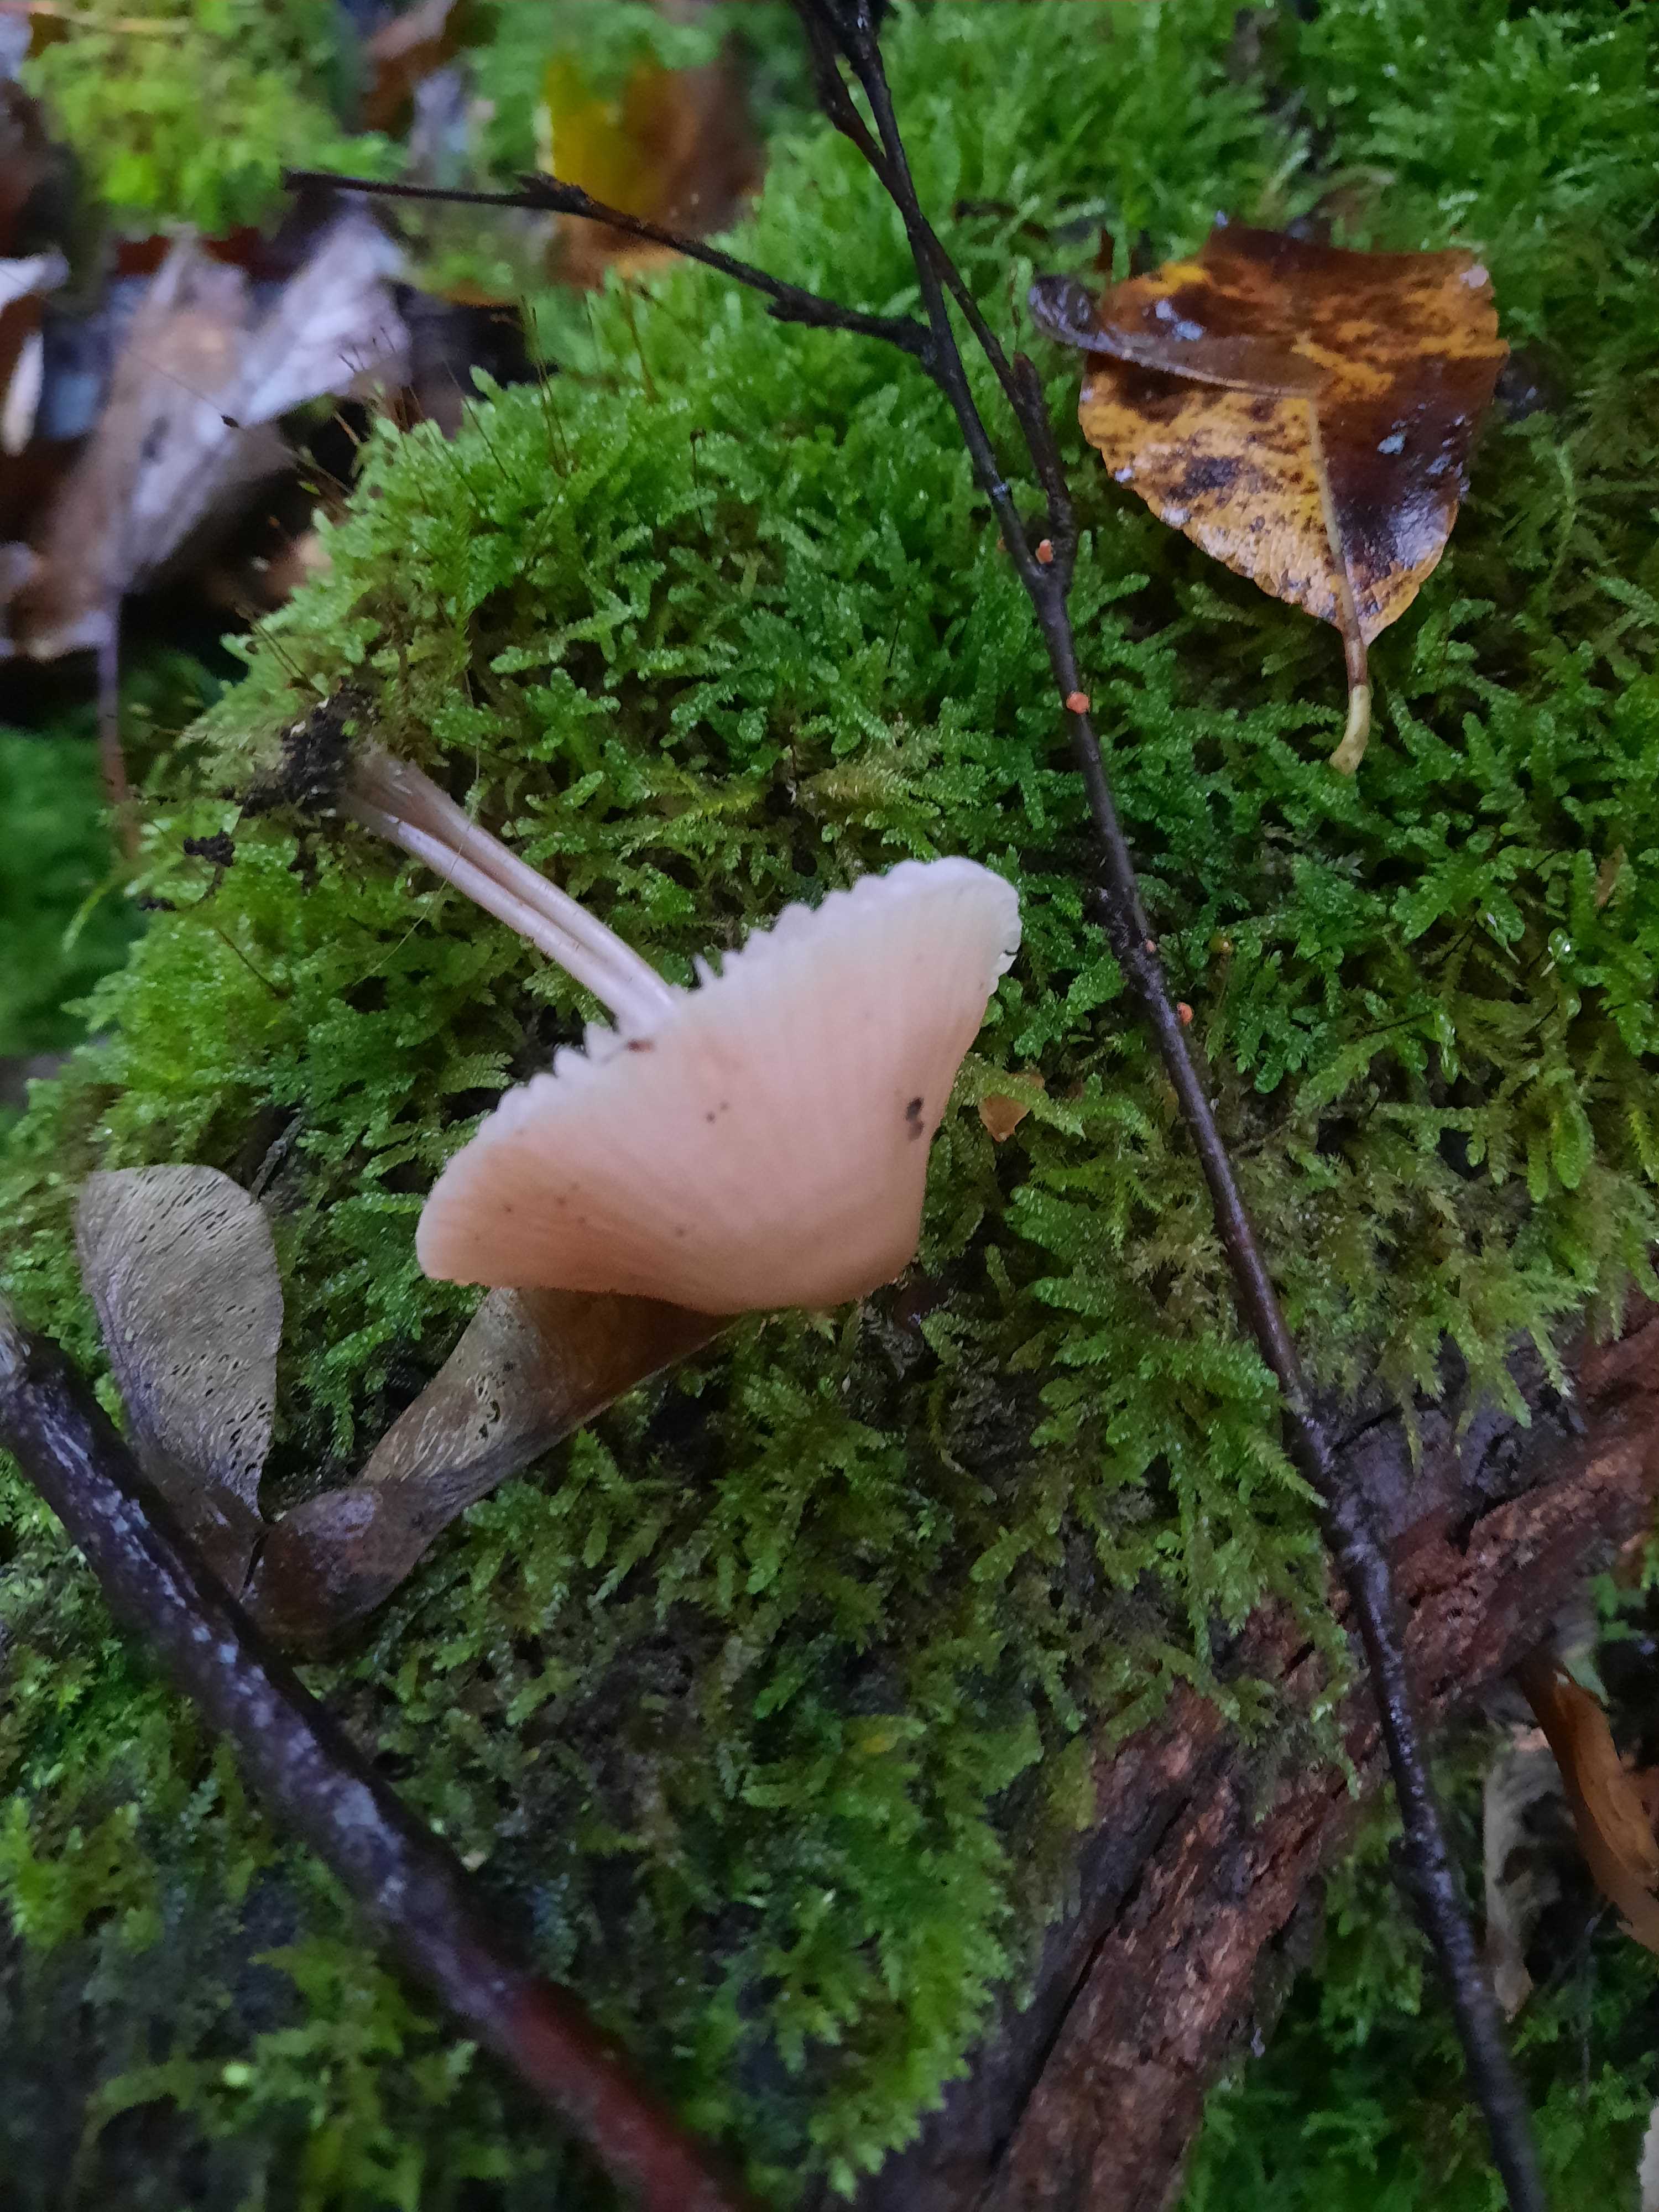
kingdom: Fungi
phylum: Basidiomycota
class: Agaricomycetes
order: Agaricales
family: Mycenaceae
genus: Mycena
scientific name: Mycena rosea
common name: rosa huesvamp
